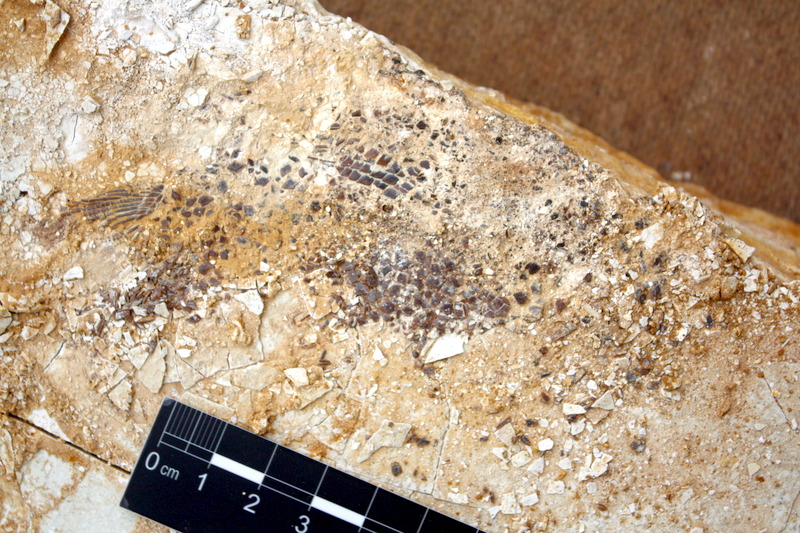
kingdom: Animalia
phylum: Chordata
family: Callipurbeckiidae
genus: Macrosemimimus
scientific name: Macrosemimimus fegerti
